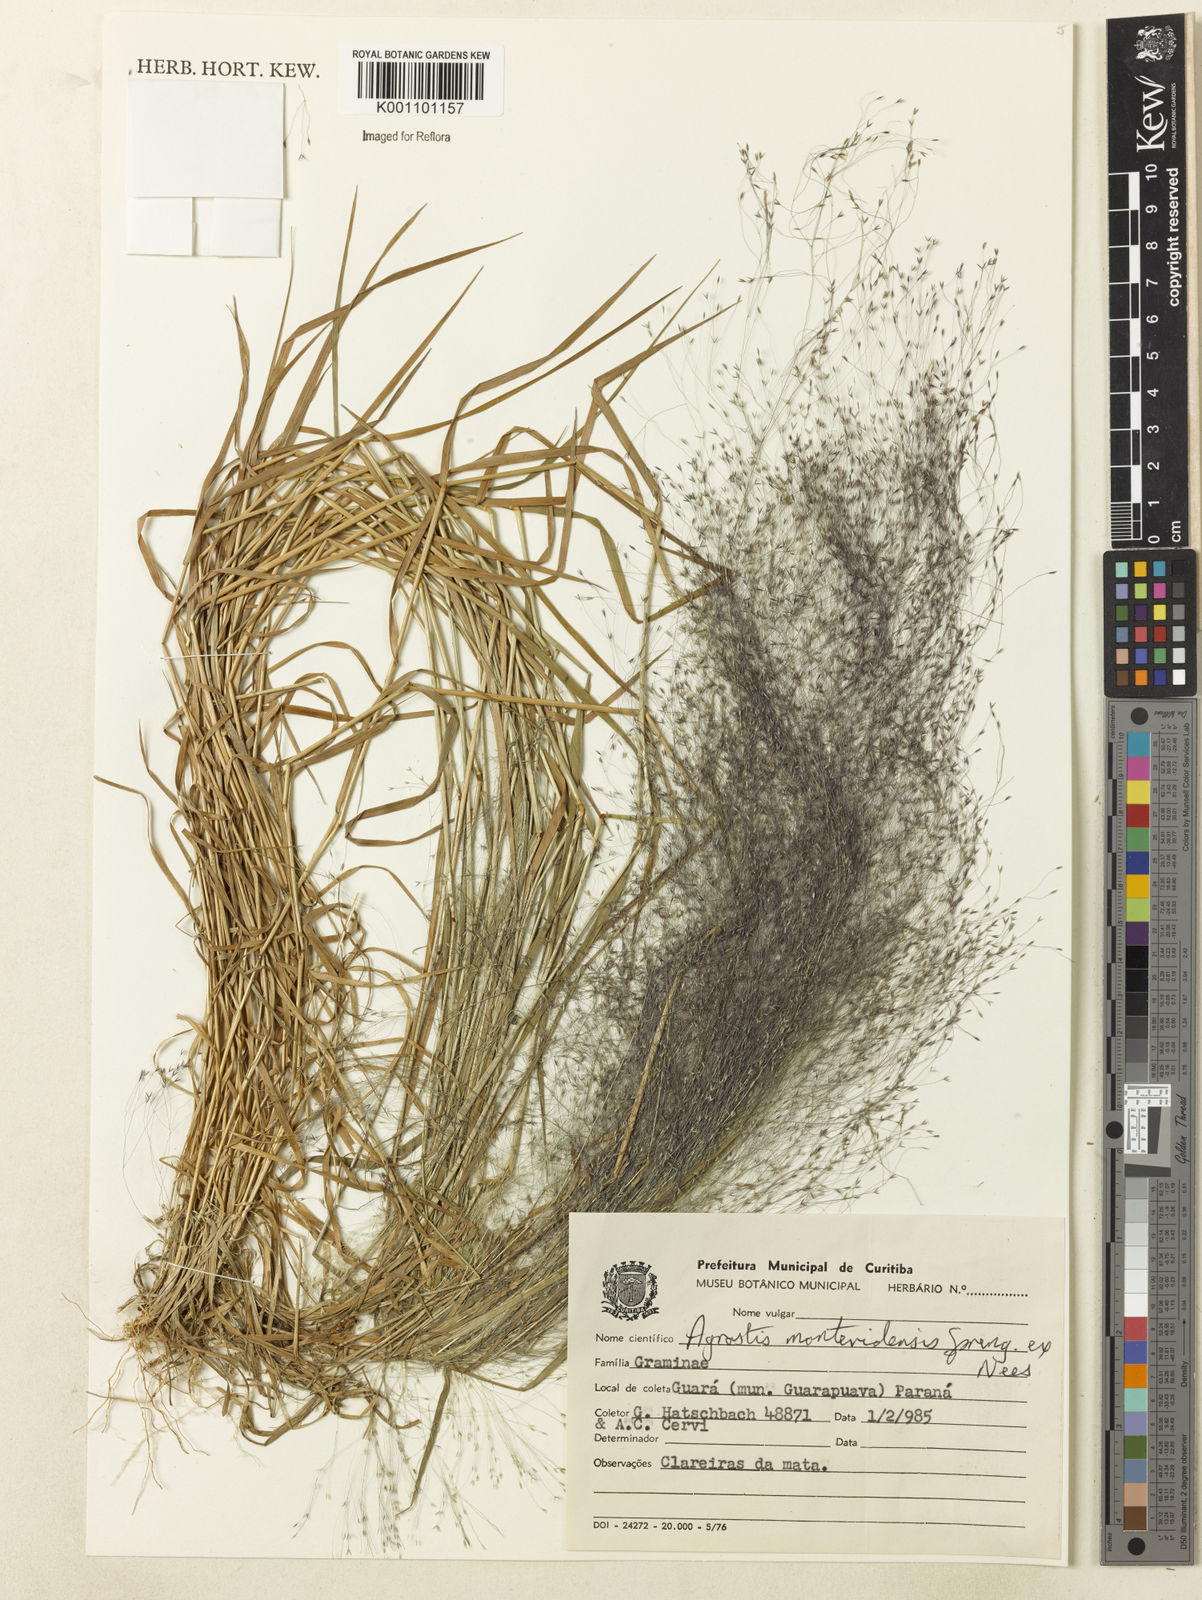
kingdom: Plantae
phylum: Tracheophyta
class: Liliopsida
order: Poales
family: Poaceae
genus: Agrostis
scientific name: Agrostis montevidensis
